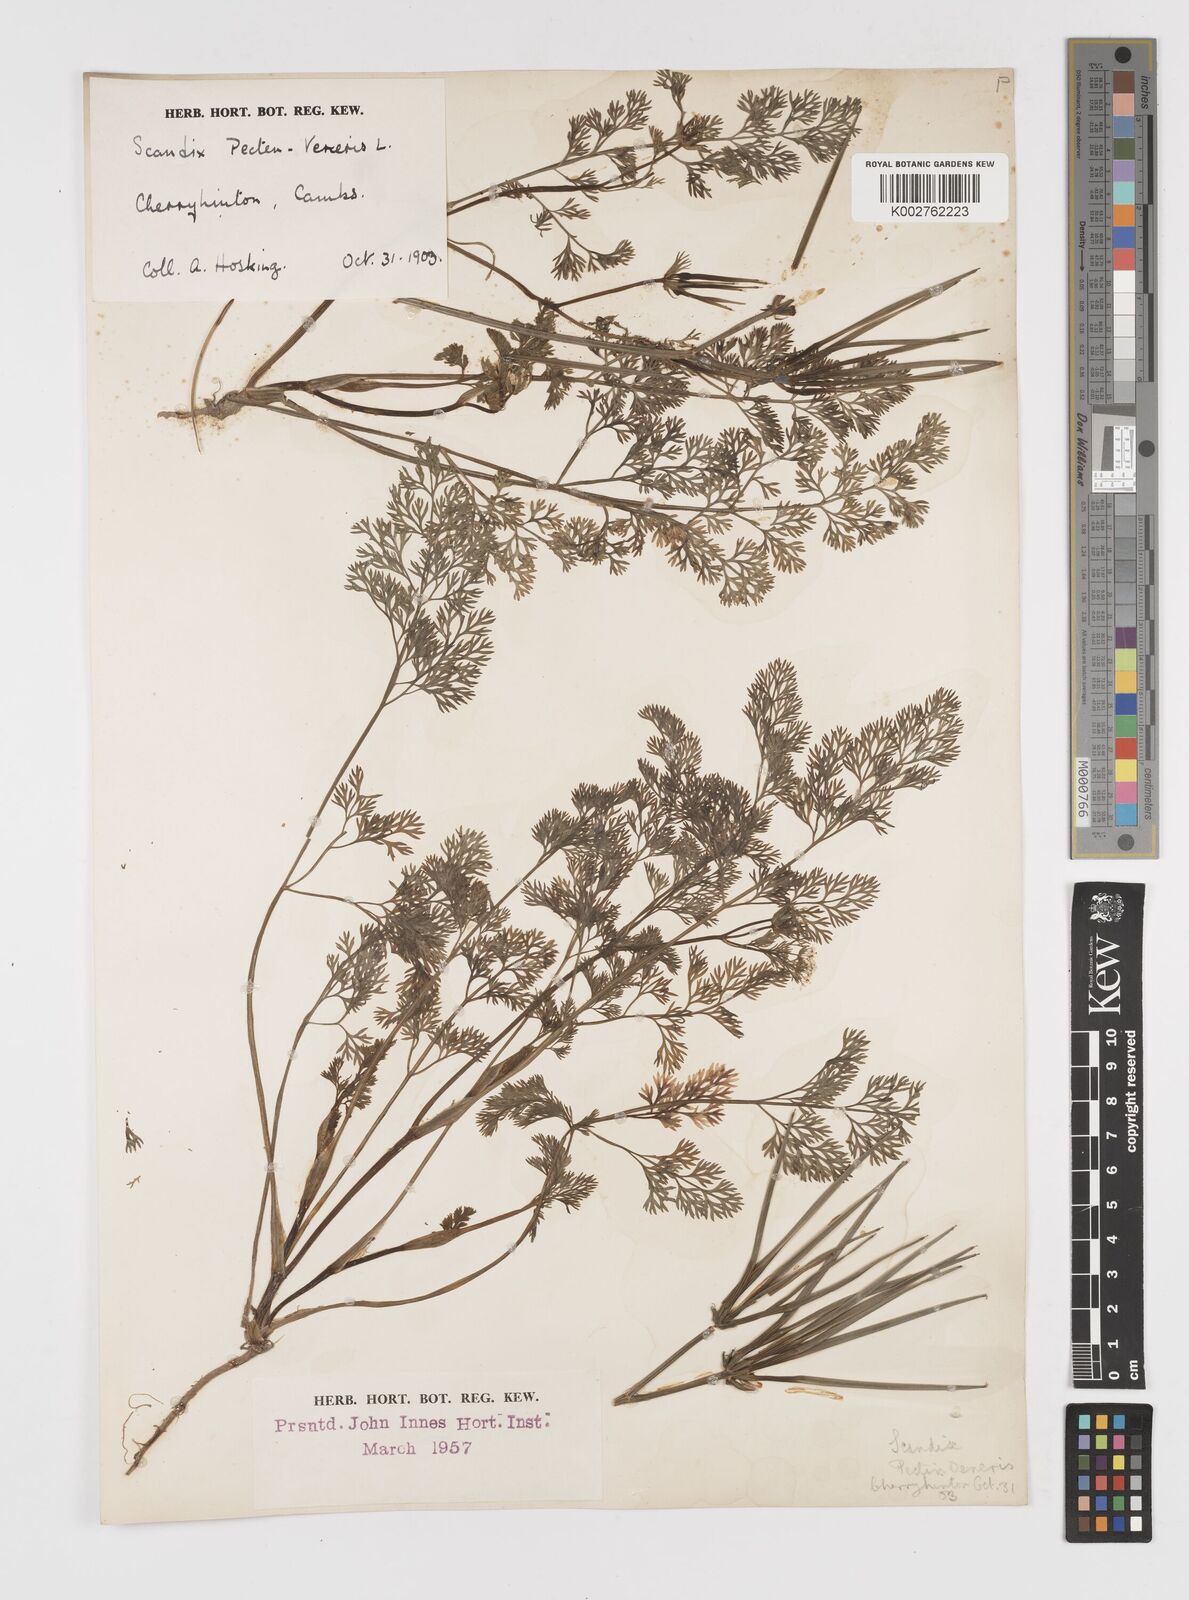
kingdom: Plantae
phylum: Tracheophyta
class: Magnoliopsida
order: Apiales
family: Apiaceae
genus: Scandix
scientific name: Scandix pecten-veneris
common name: Shepherd's-needle
